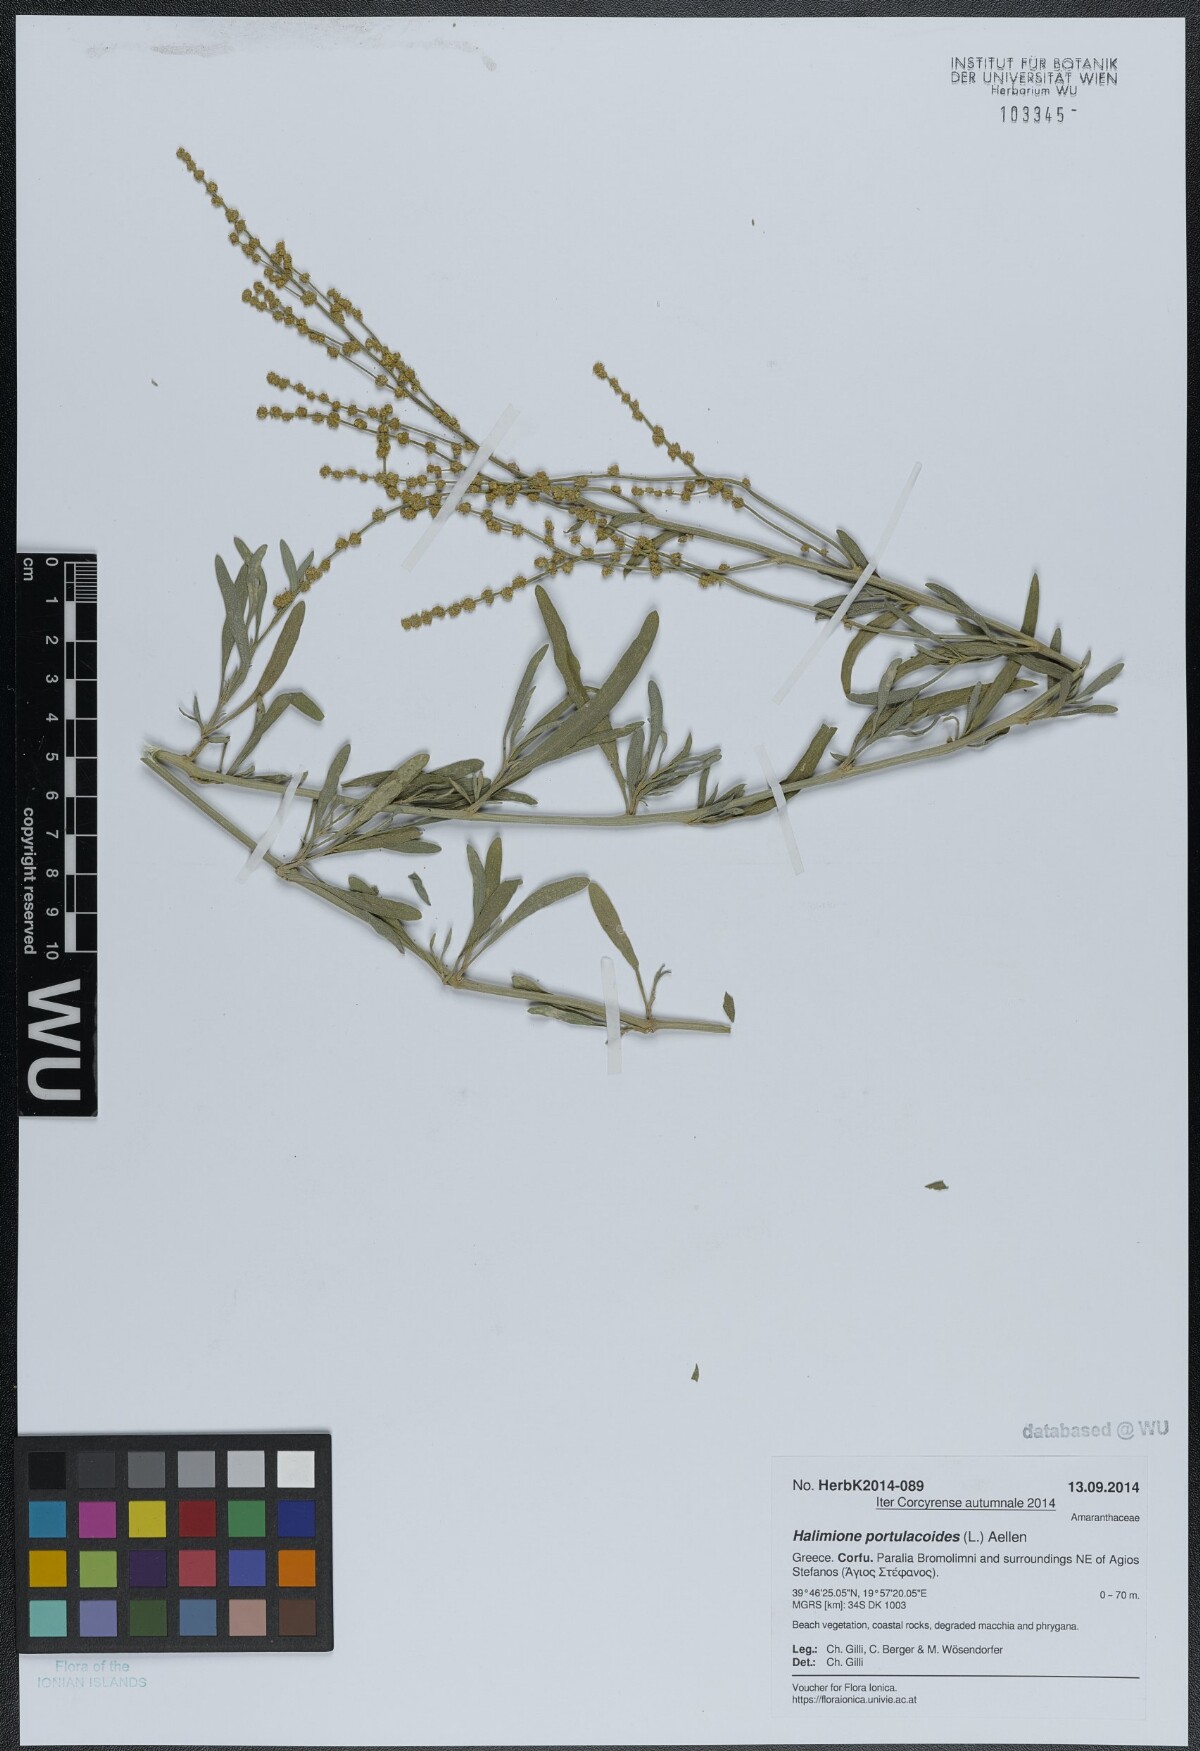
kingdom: Plantae
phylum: Tracheophyta
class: Magnoliopsida
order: Caryophyllales
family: Amaranthaceae
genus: Halimione
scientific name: Halimione portulacoides
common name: Sea-purslane
